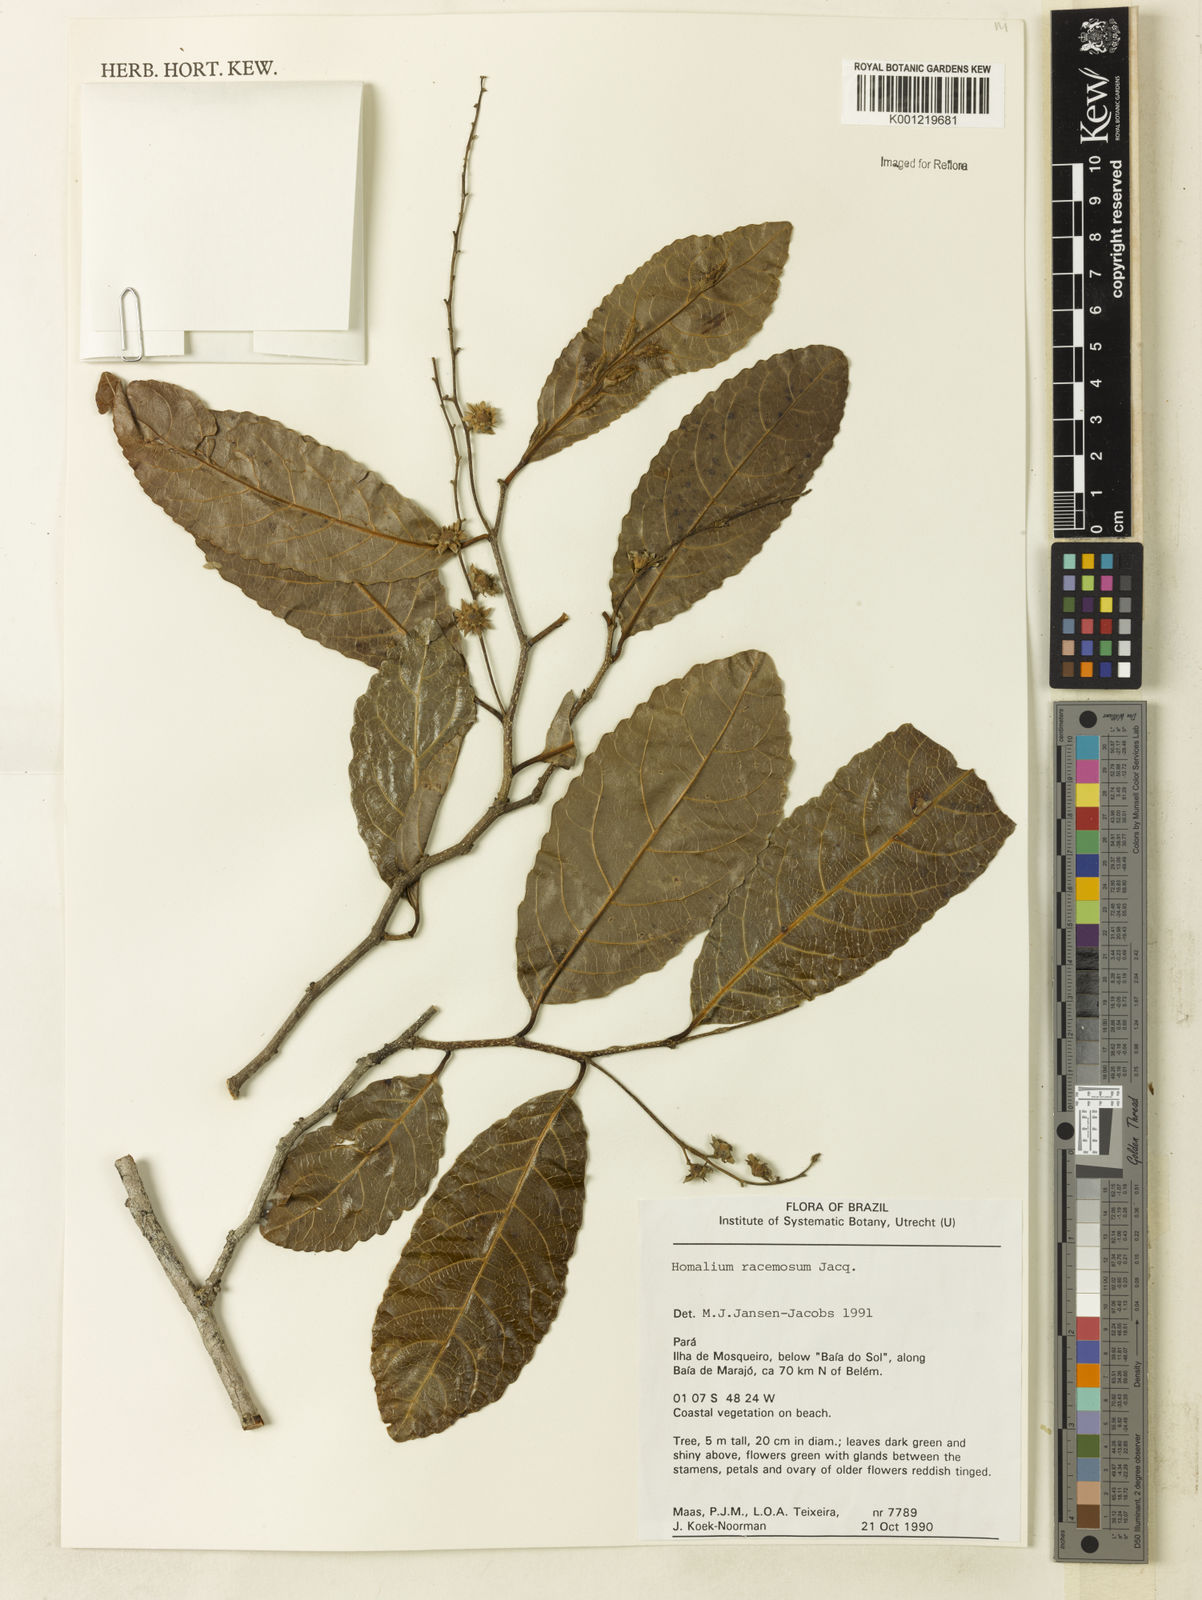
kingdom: Plantae
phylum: Tracheophyta
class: Magnoliopsida
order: Malpighiales
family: Salicaceae
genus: Homalium
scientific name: Homalium racemosum
